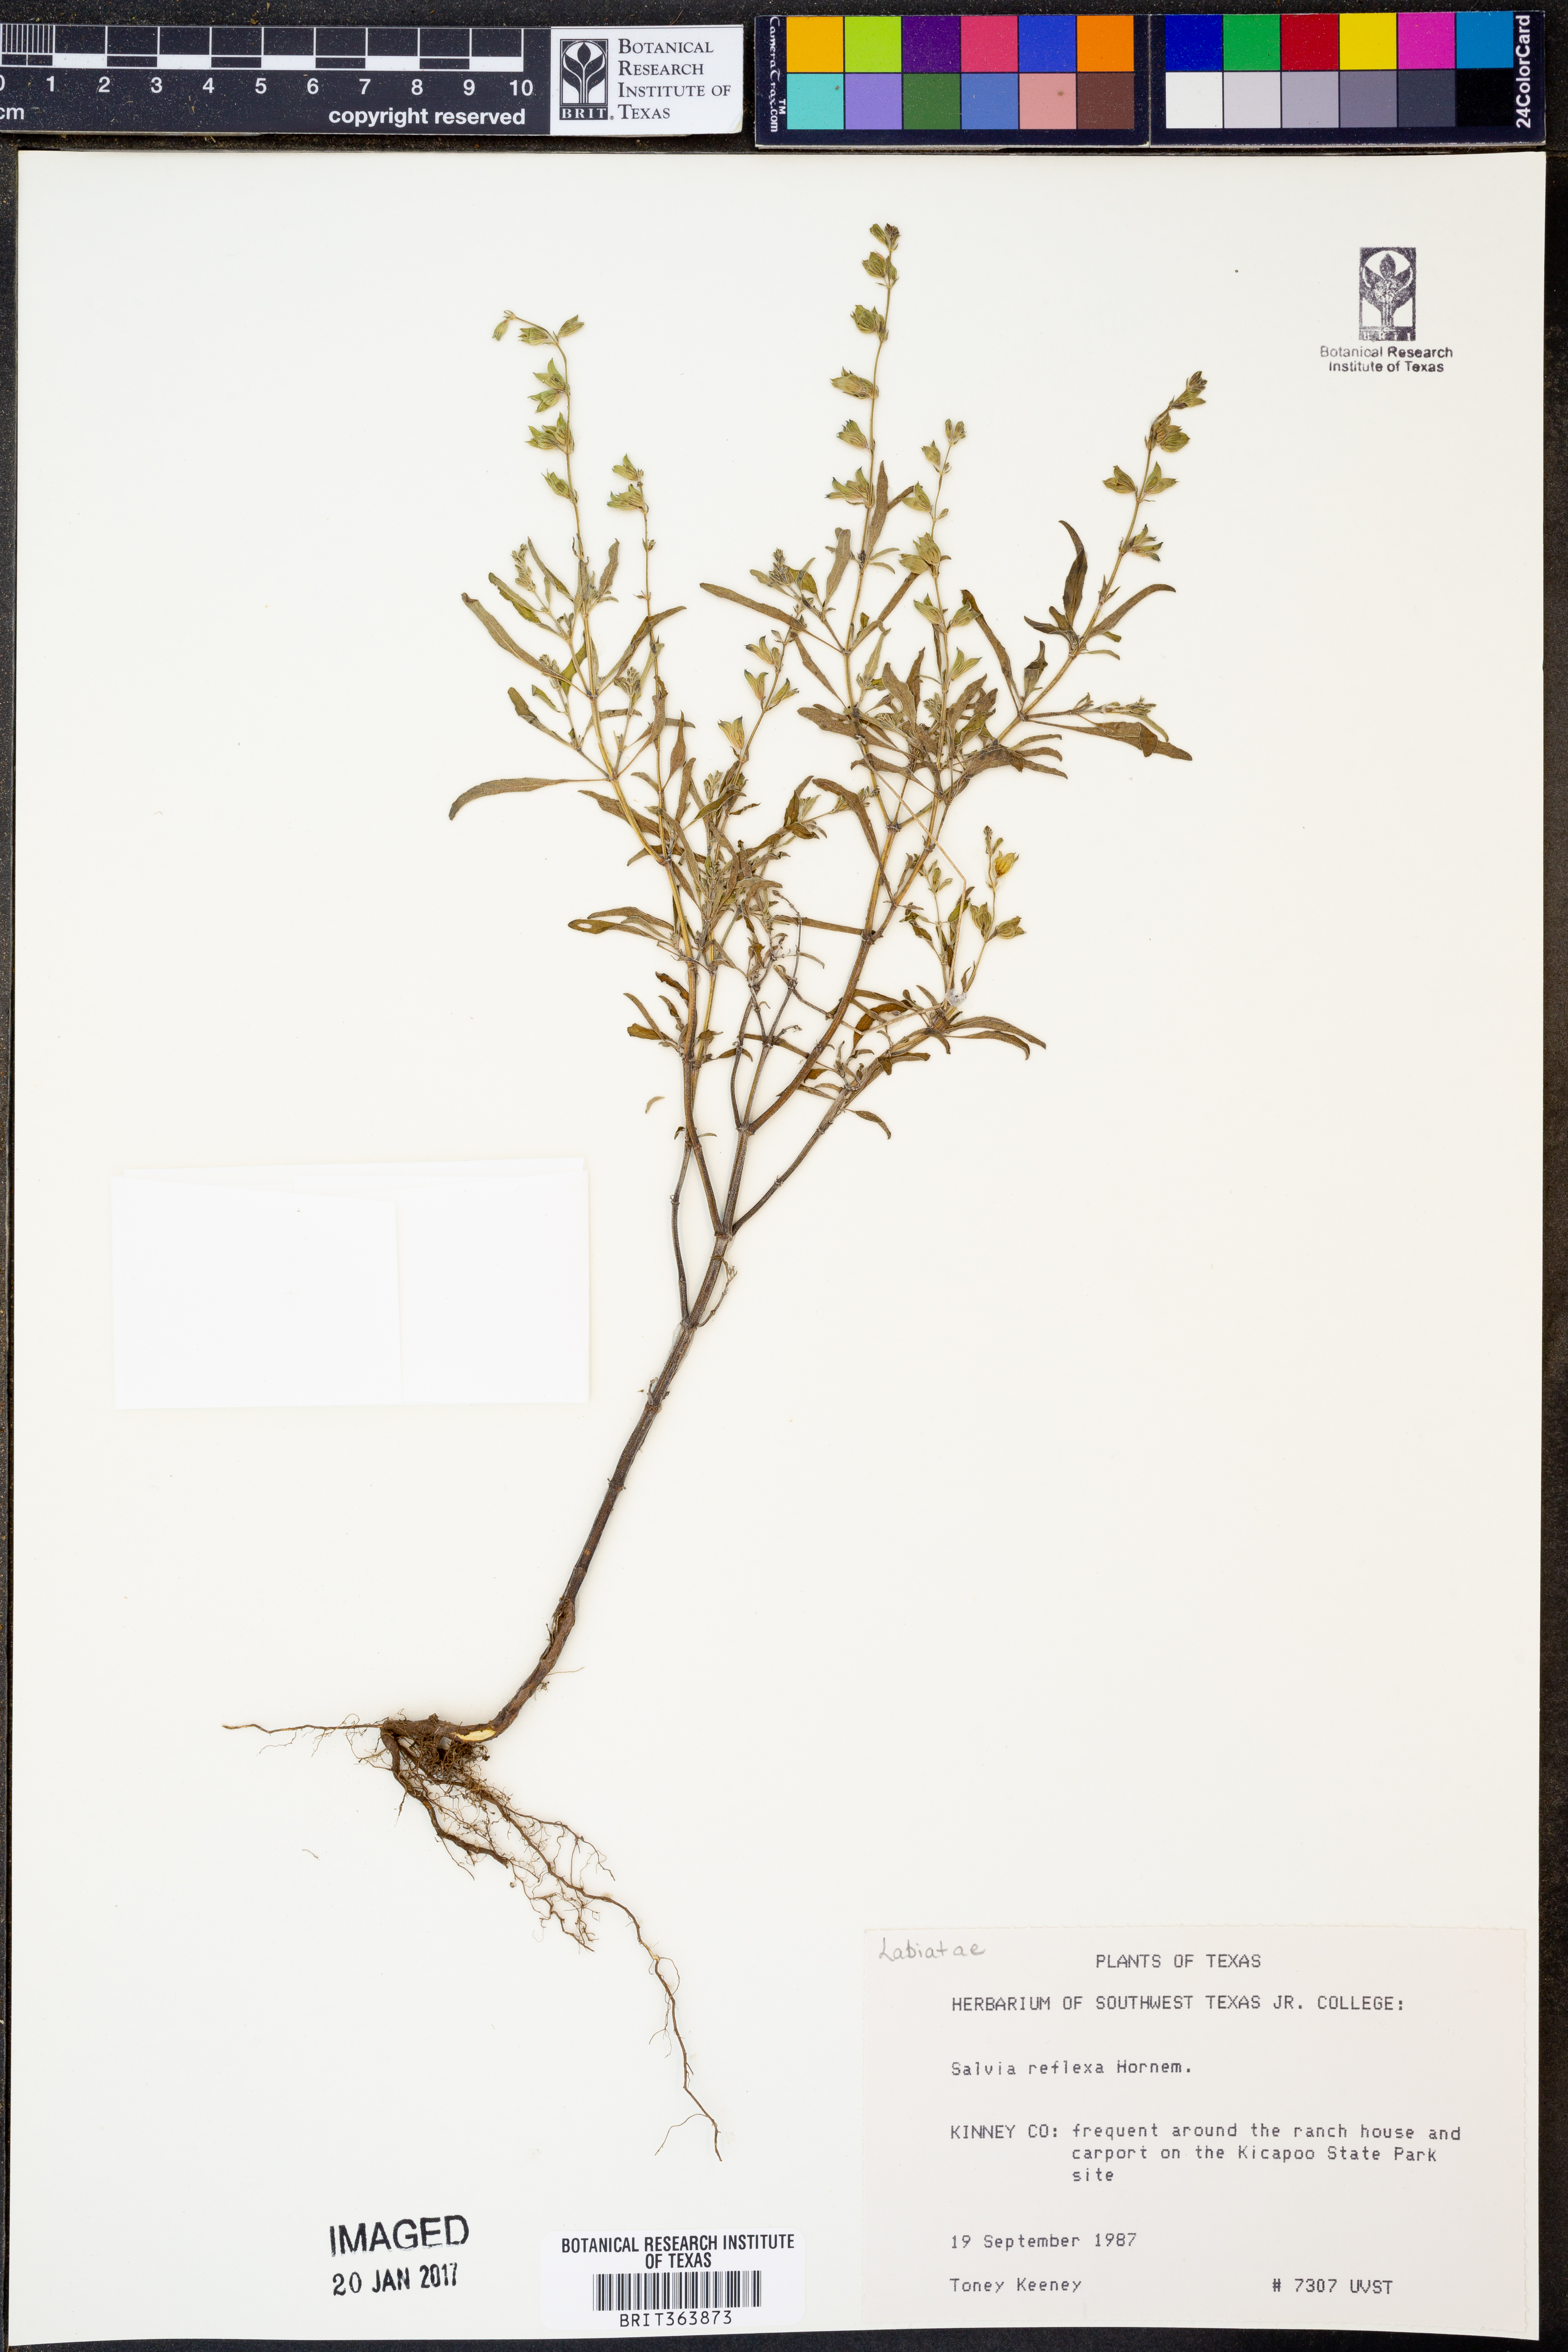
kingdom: Plantae
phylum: Tracheophyta
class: Magnoliopsida
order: Lamiales
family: Lamiaceae
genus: Salvia
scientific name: Salvia reflexa
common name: Mintweed
